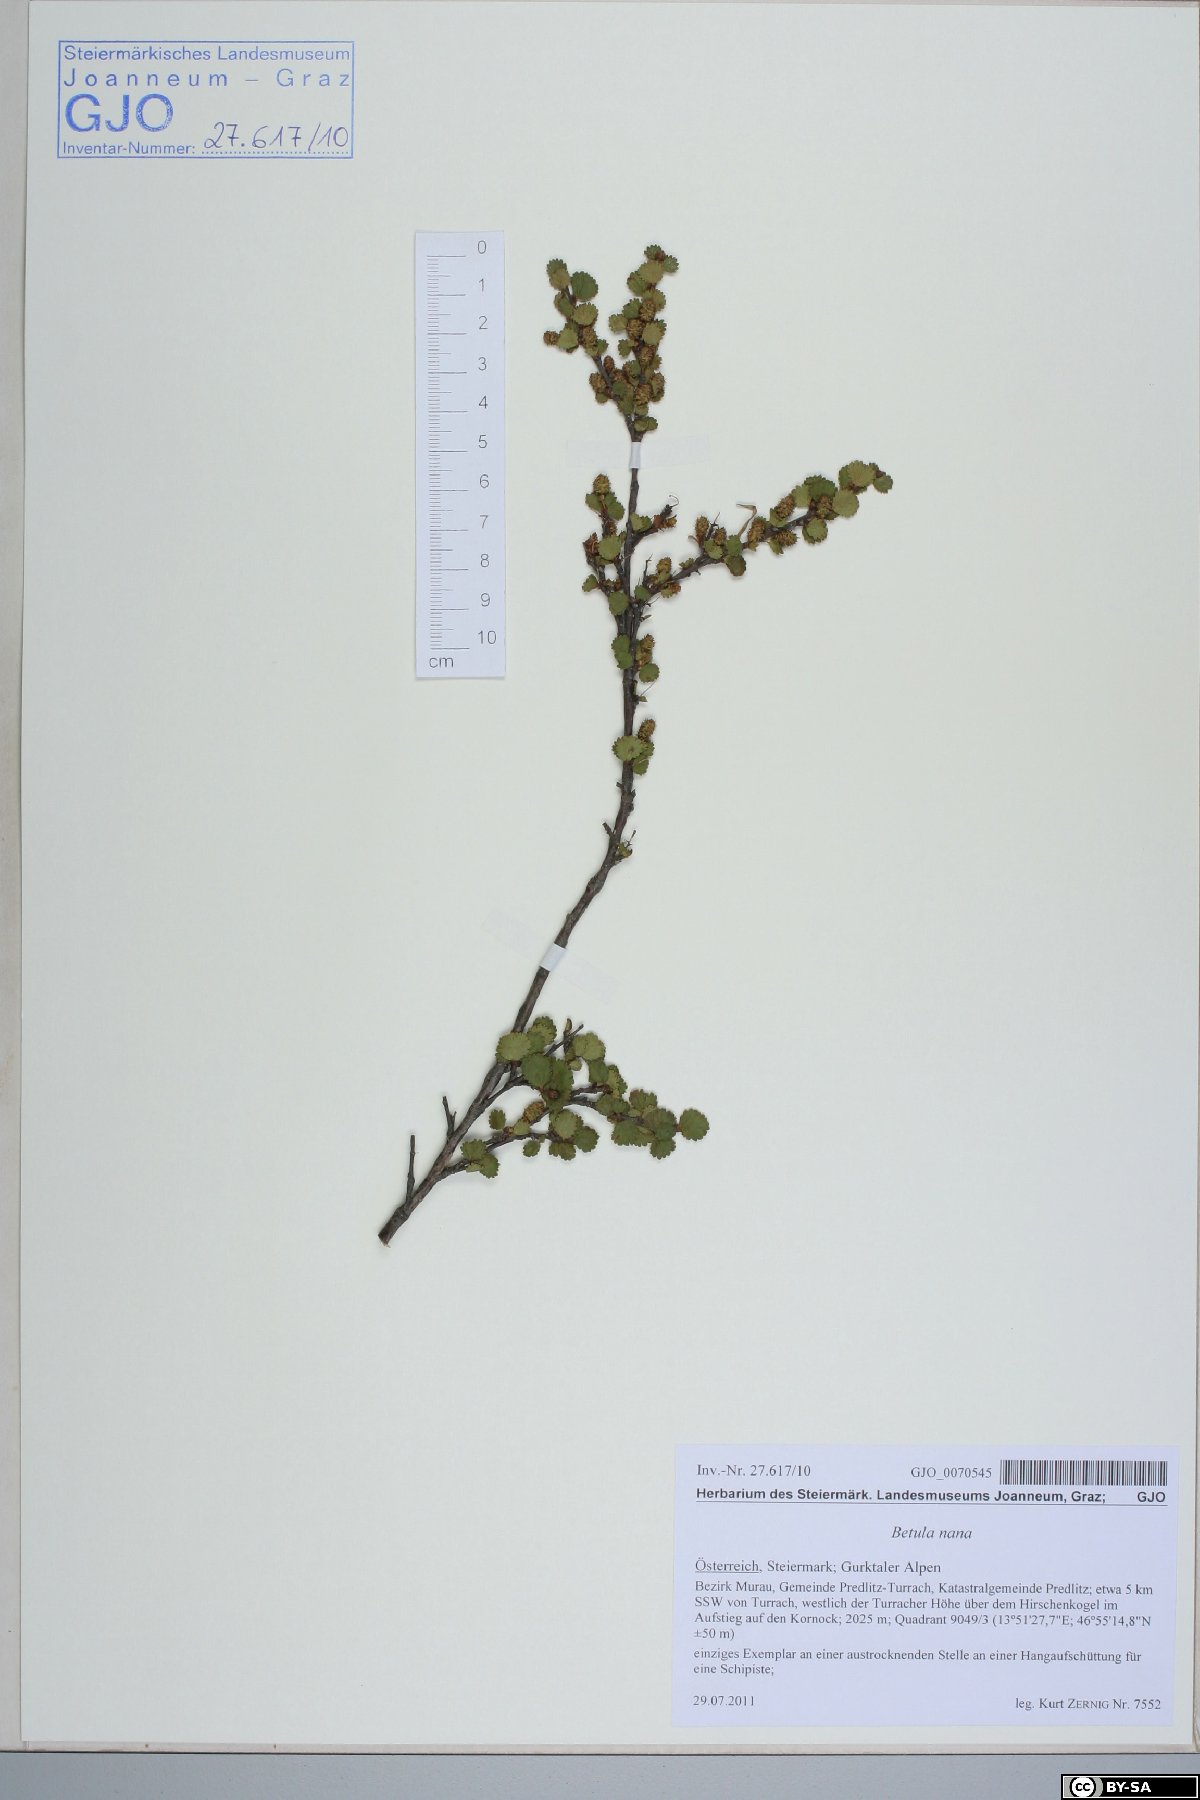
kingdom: Plantae
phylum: Tracheophyta
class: Magnoliopsida
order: Fagales
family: Betulaceae
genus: Betula
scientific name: Betula nana
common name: Arctic dwarf birch
